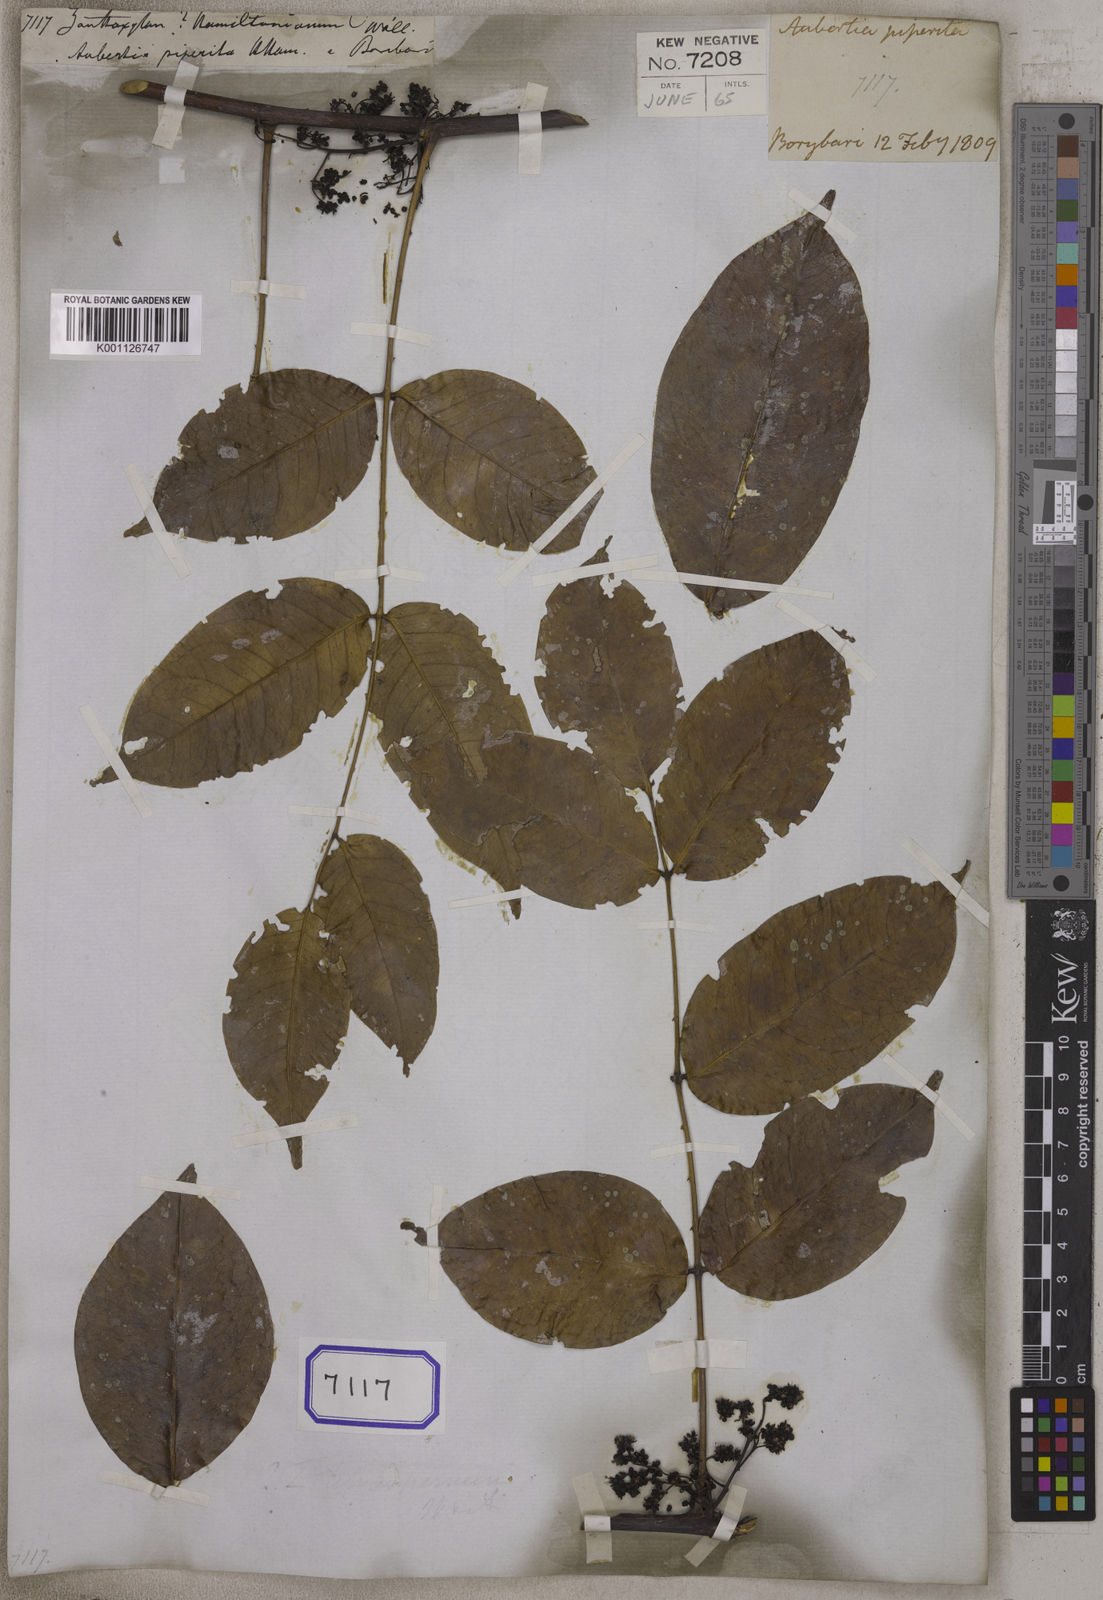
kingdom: Plantae
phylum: Tracheophyta
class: Magnoliopsida
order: Sapindales
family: Rutaceae
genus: Zanthoxylum
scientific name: Zanthoxylum nitidum
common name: Shiny-leaf prickly-ash
